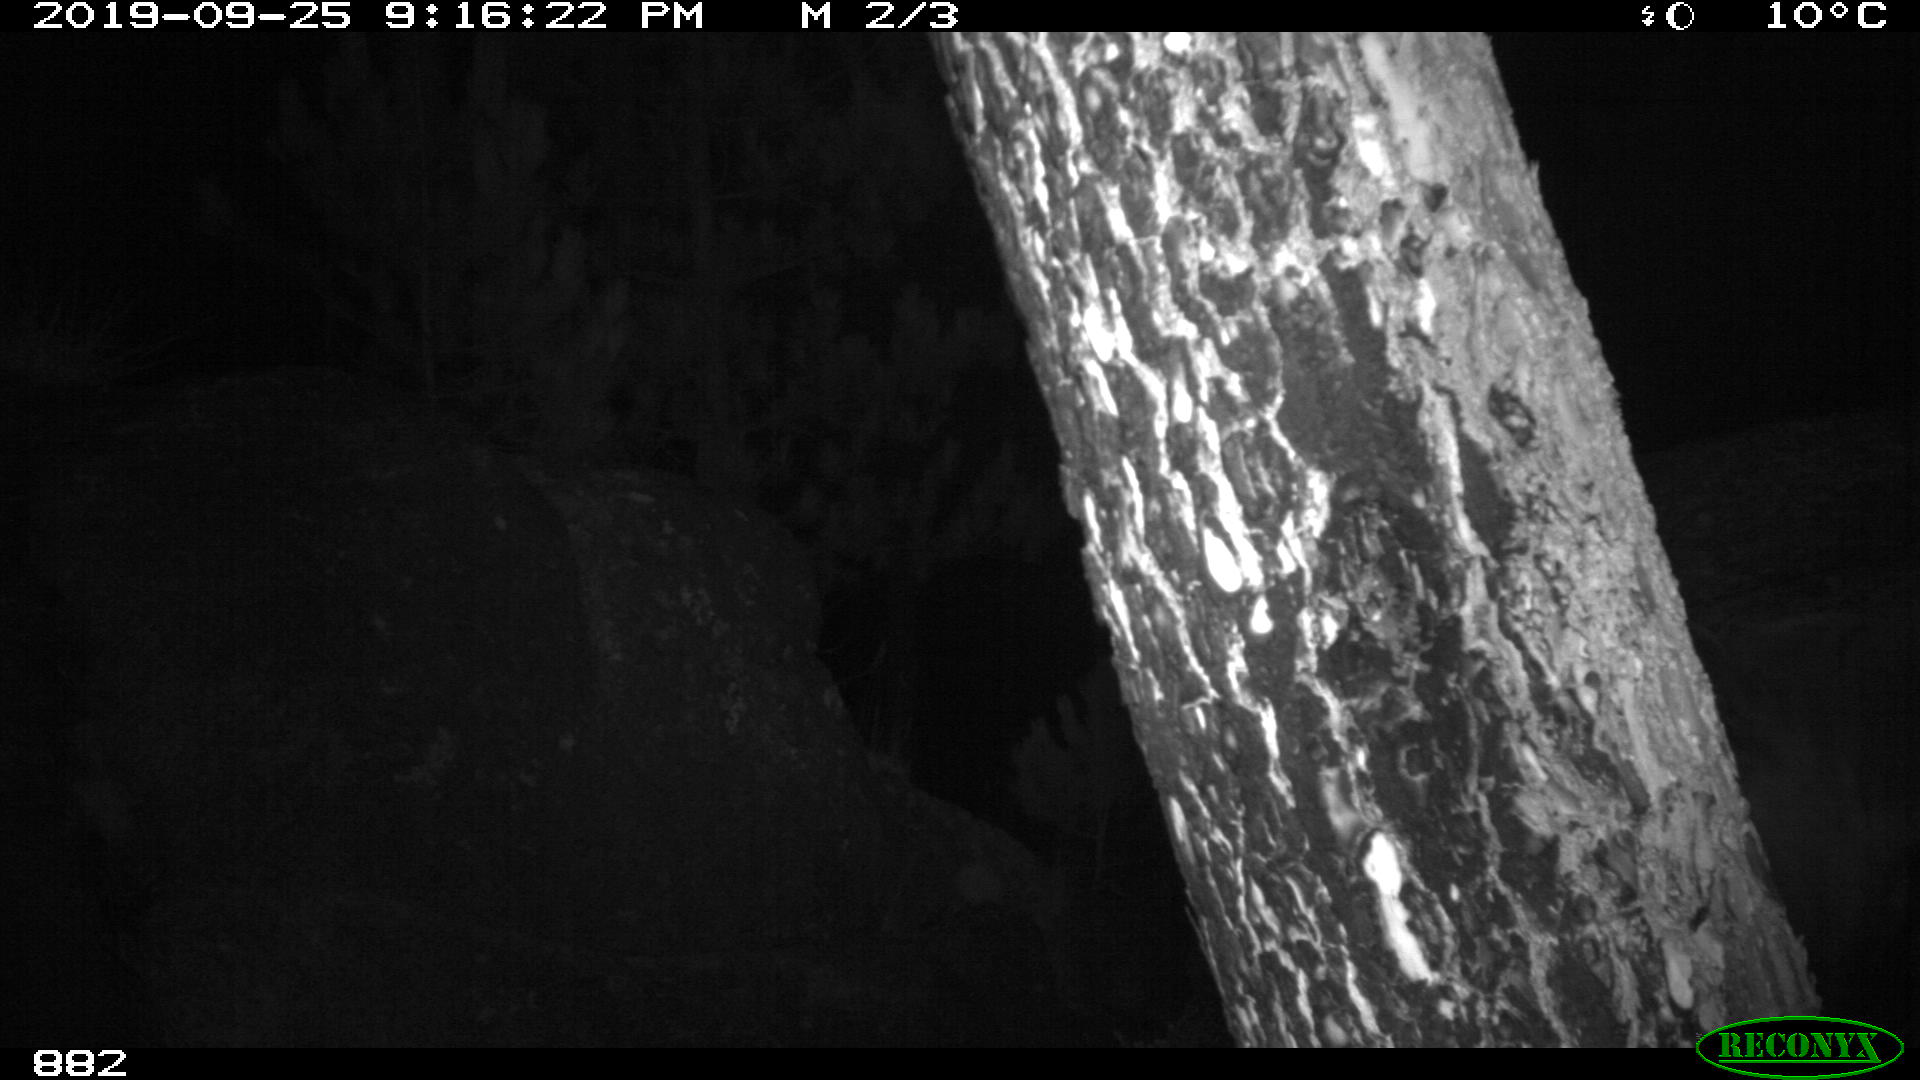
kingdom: Animalia
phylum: Chordata
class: Mammalia
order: Perissodactyla
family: Equidae
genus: Equus
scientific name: Equus caballus
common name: Horse
